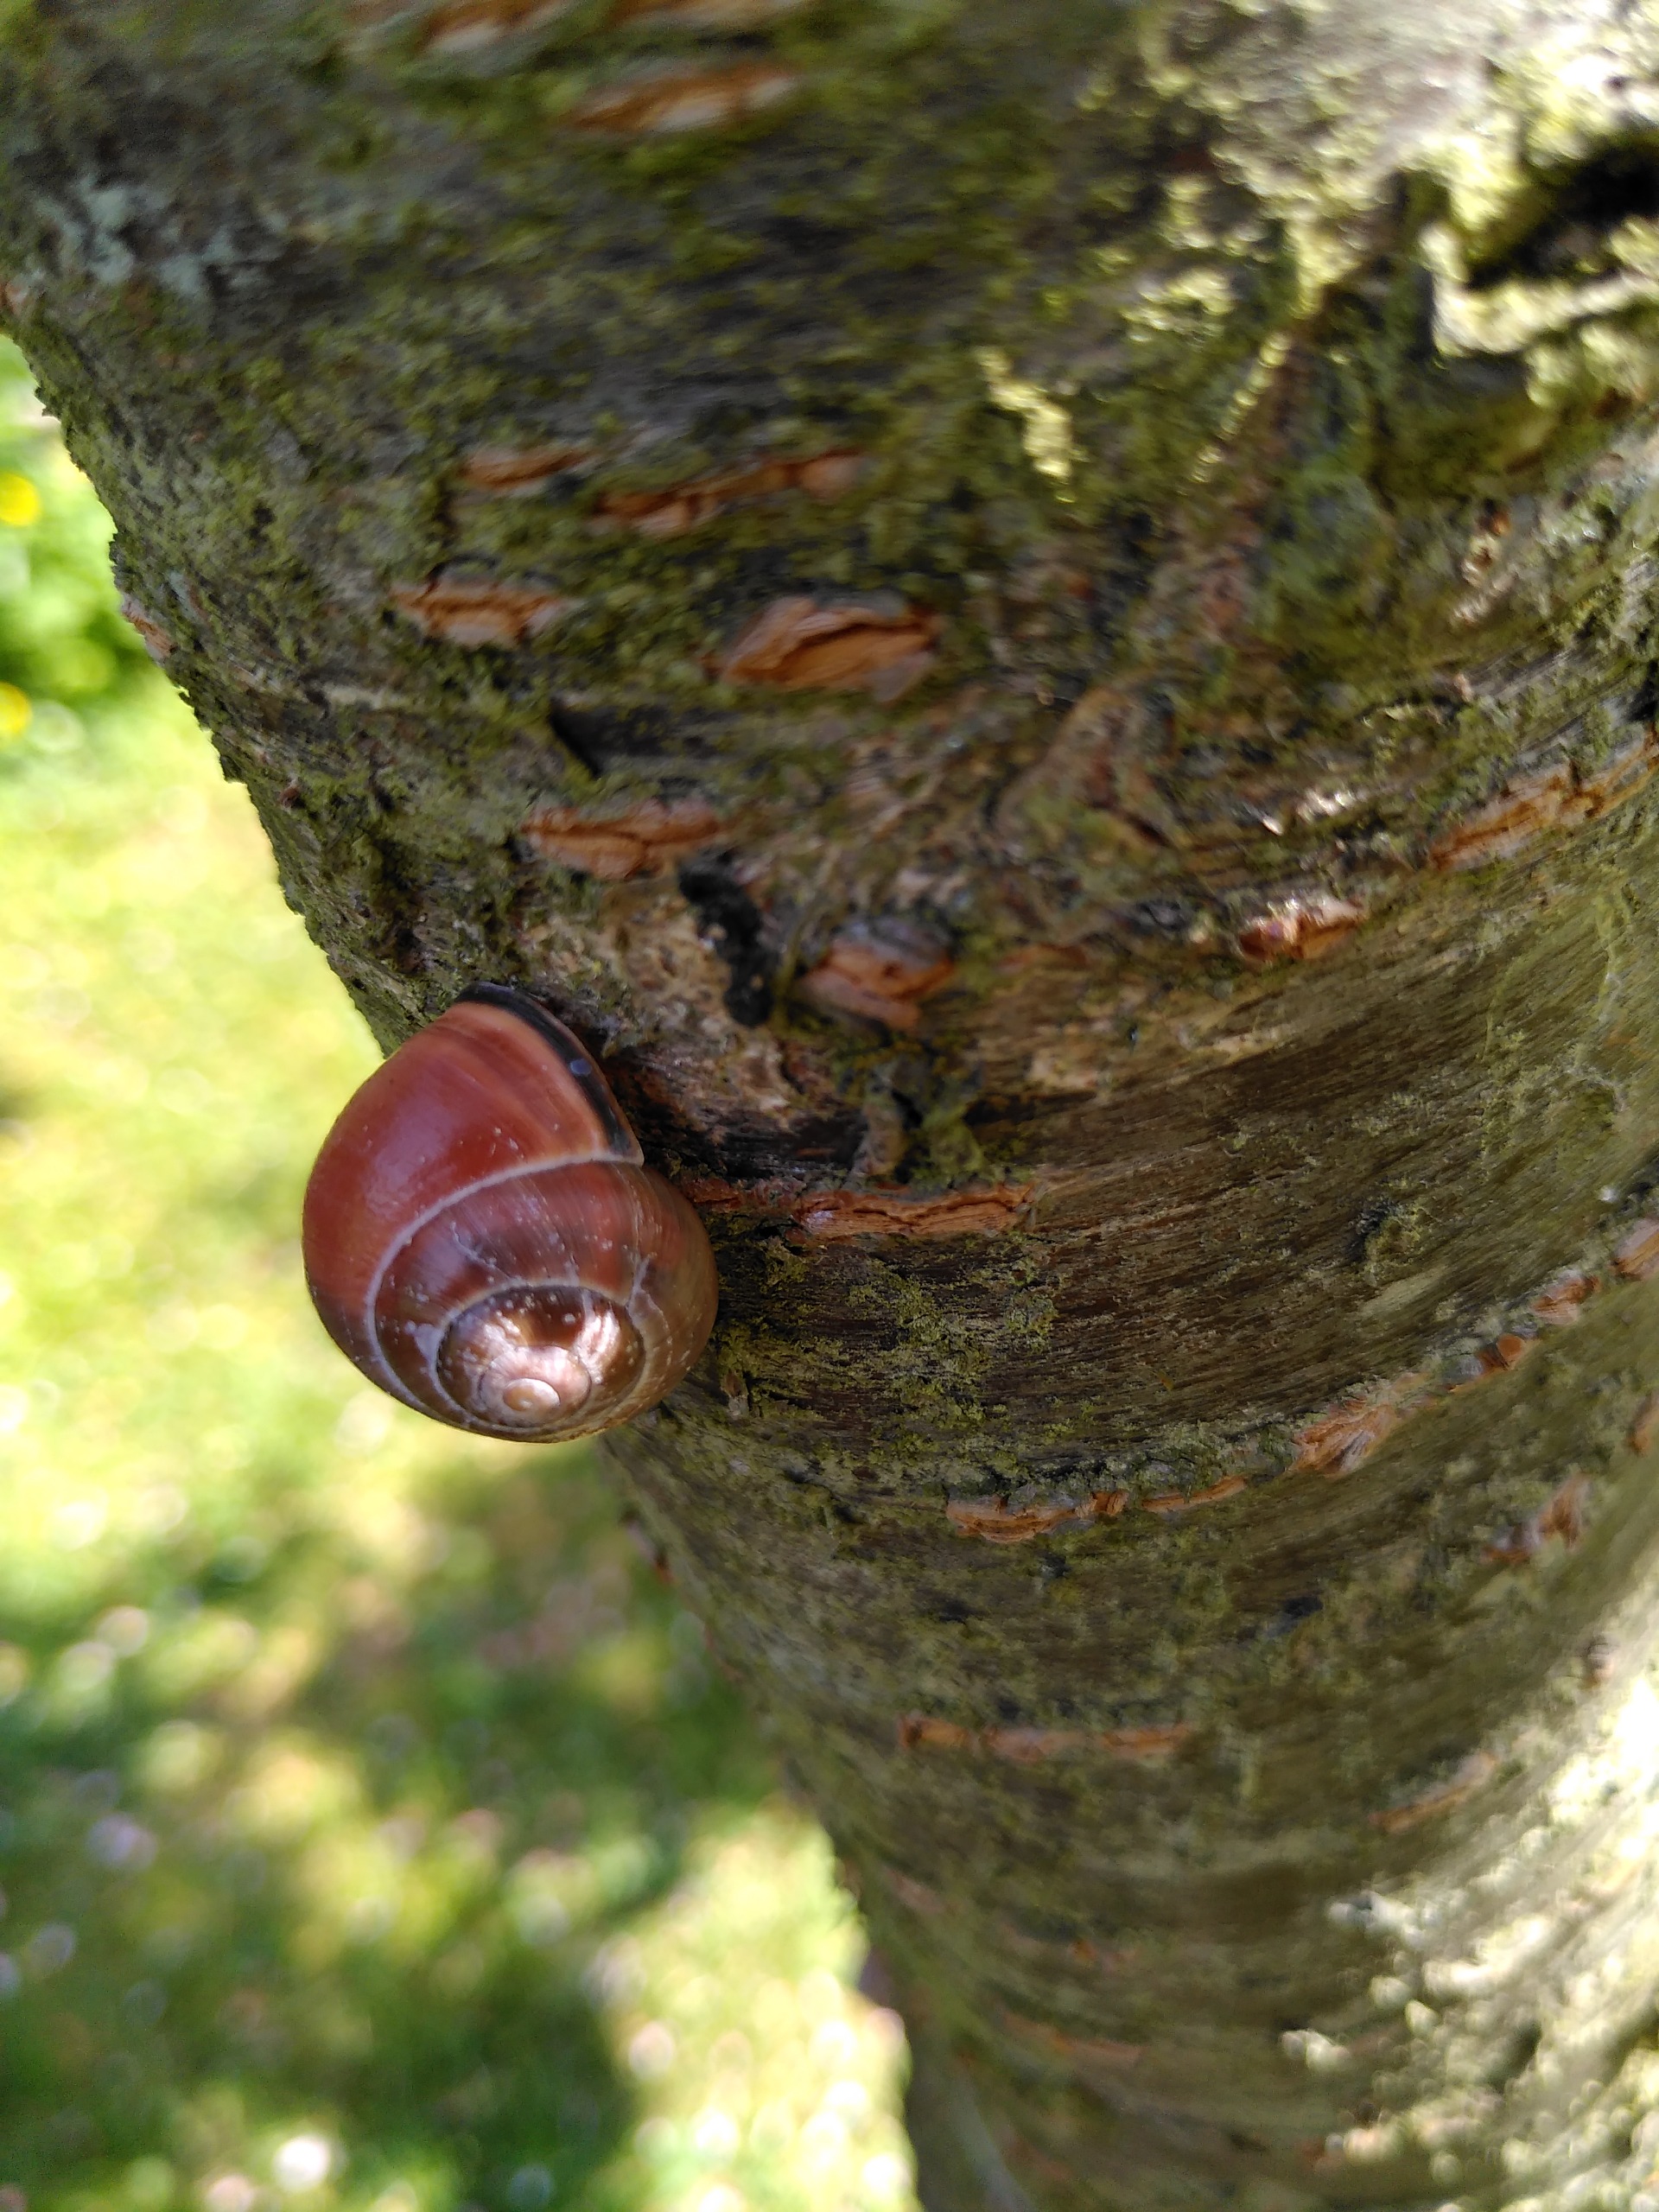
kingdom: Animalia
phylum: Mollusca
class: Gastropoda
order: Stylommatophora
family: Helicidae
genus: Cepaea
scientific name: Cepaea nemoralis
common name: Lundsnegl
